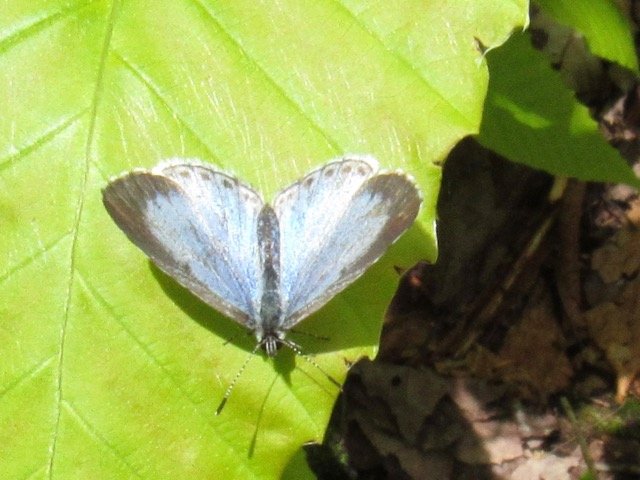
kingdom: Animalia
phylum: Arthropoda
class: Insecta
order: Lepidoptera
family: Lycaenidae
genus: Celastrina
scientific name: Celastrina lucia
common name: Northern Spring Azure
